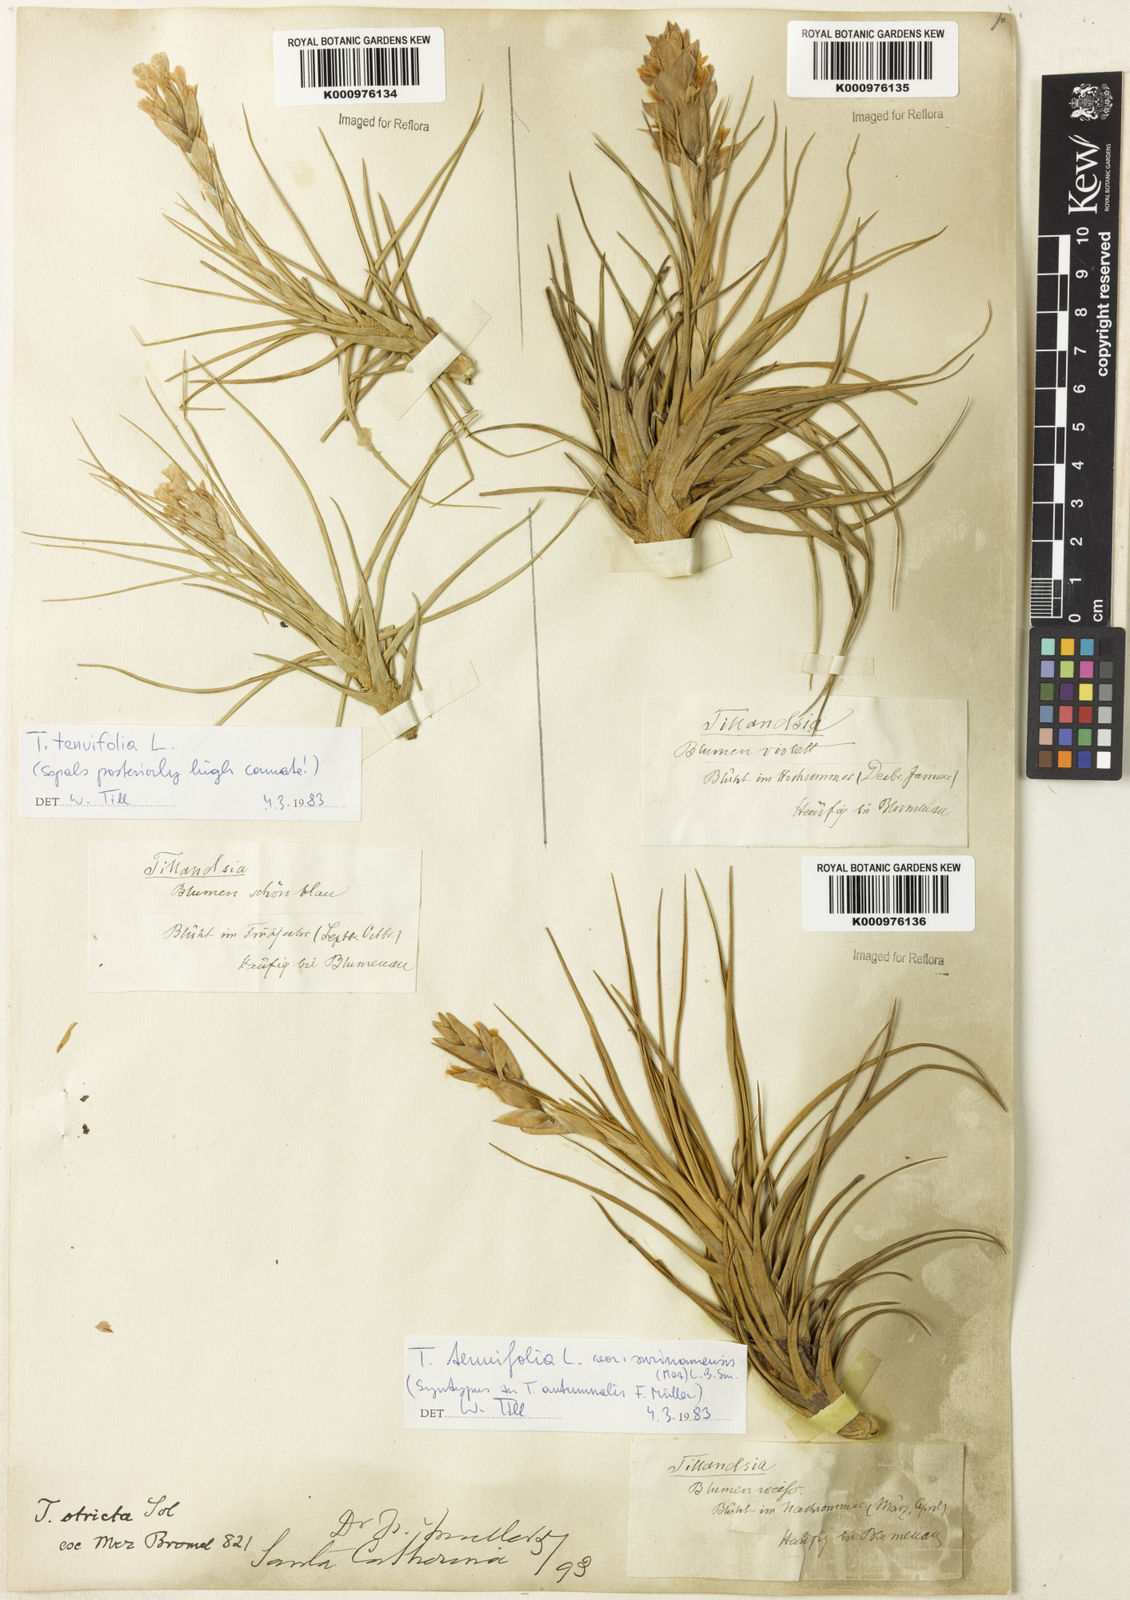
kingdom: Plantae
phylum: Tracheophyta
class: Liliopsida
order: Poales
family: Bromeliaceae
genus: Tillandsia
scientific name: Tillandsia tenuifolia
